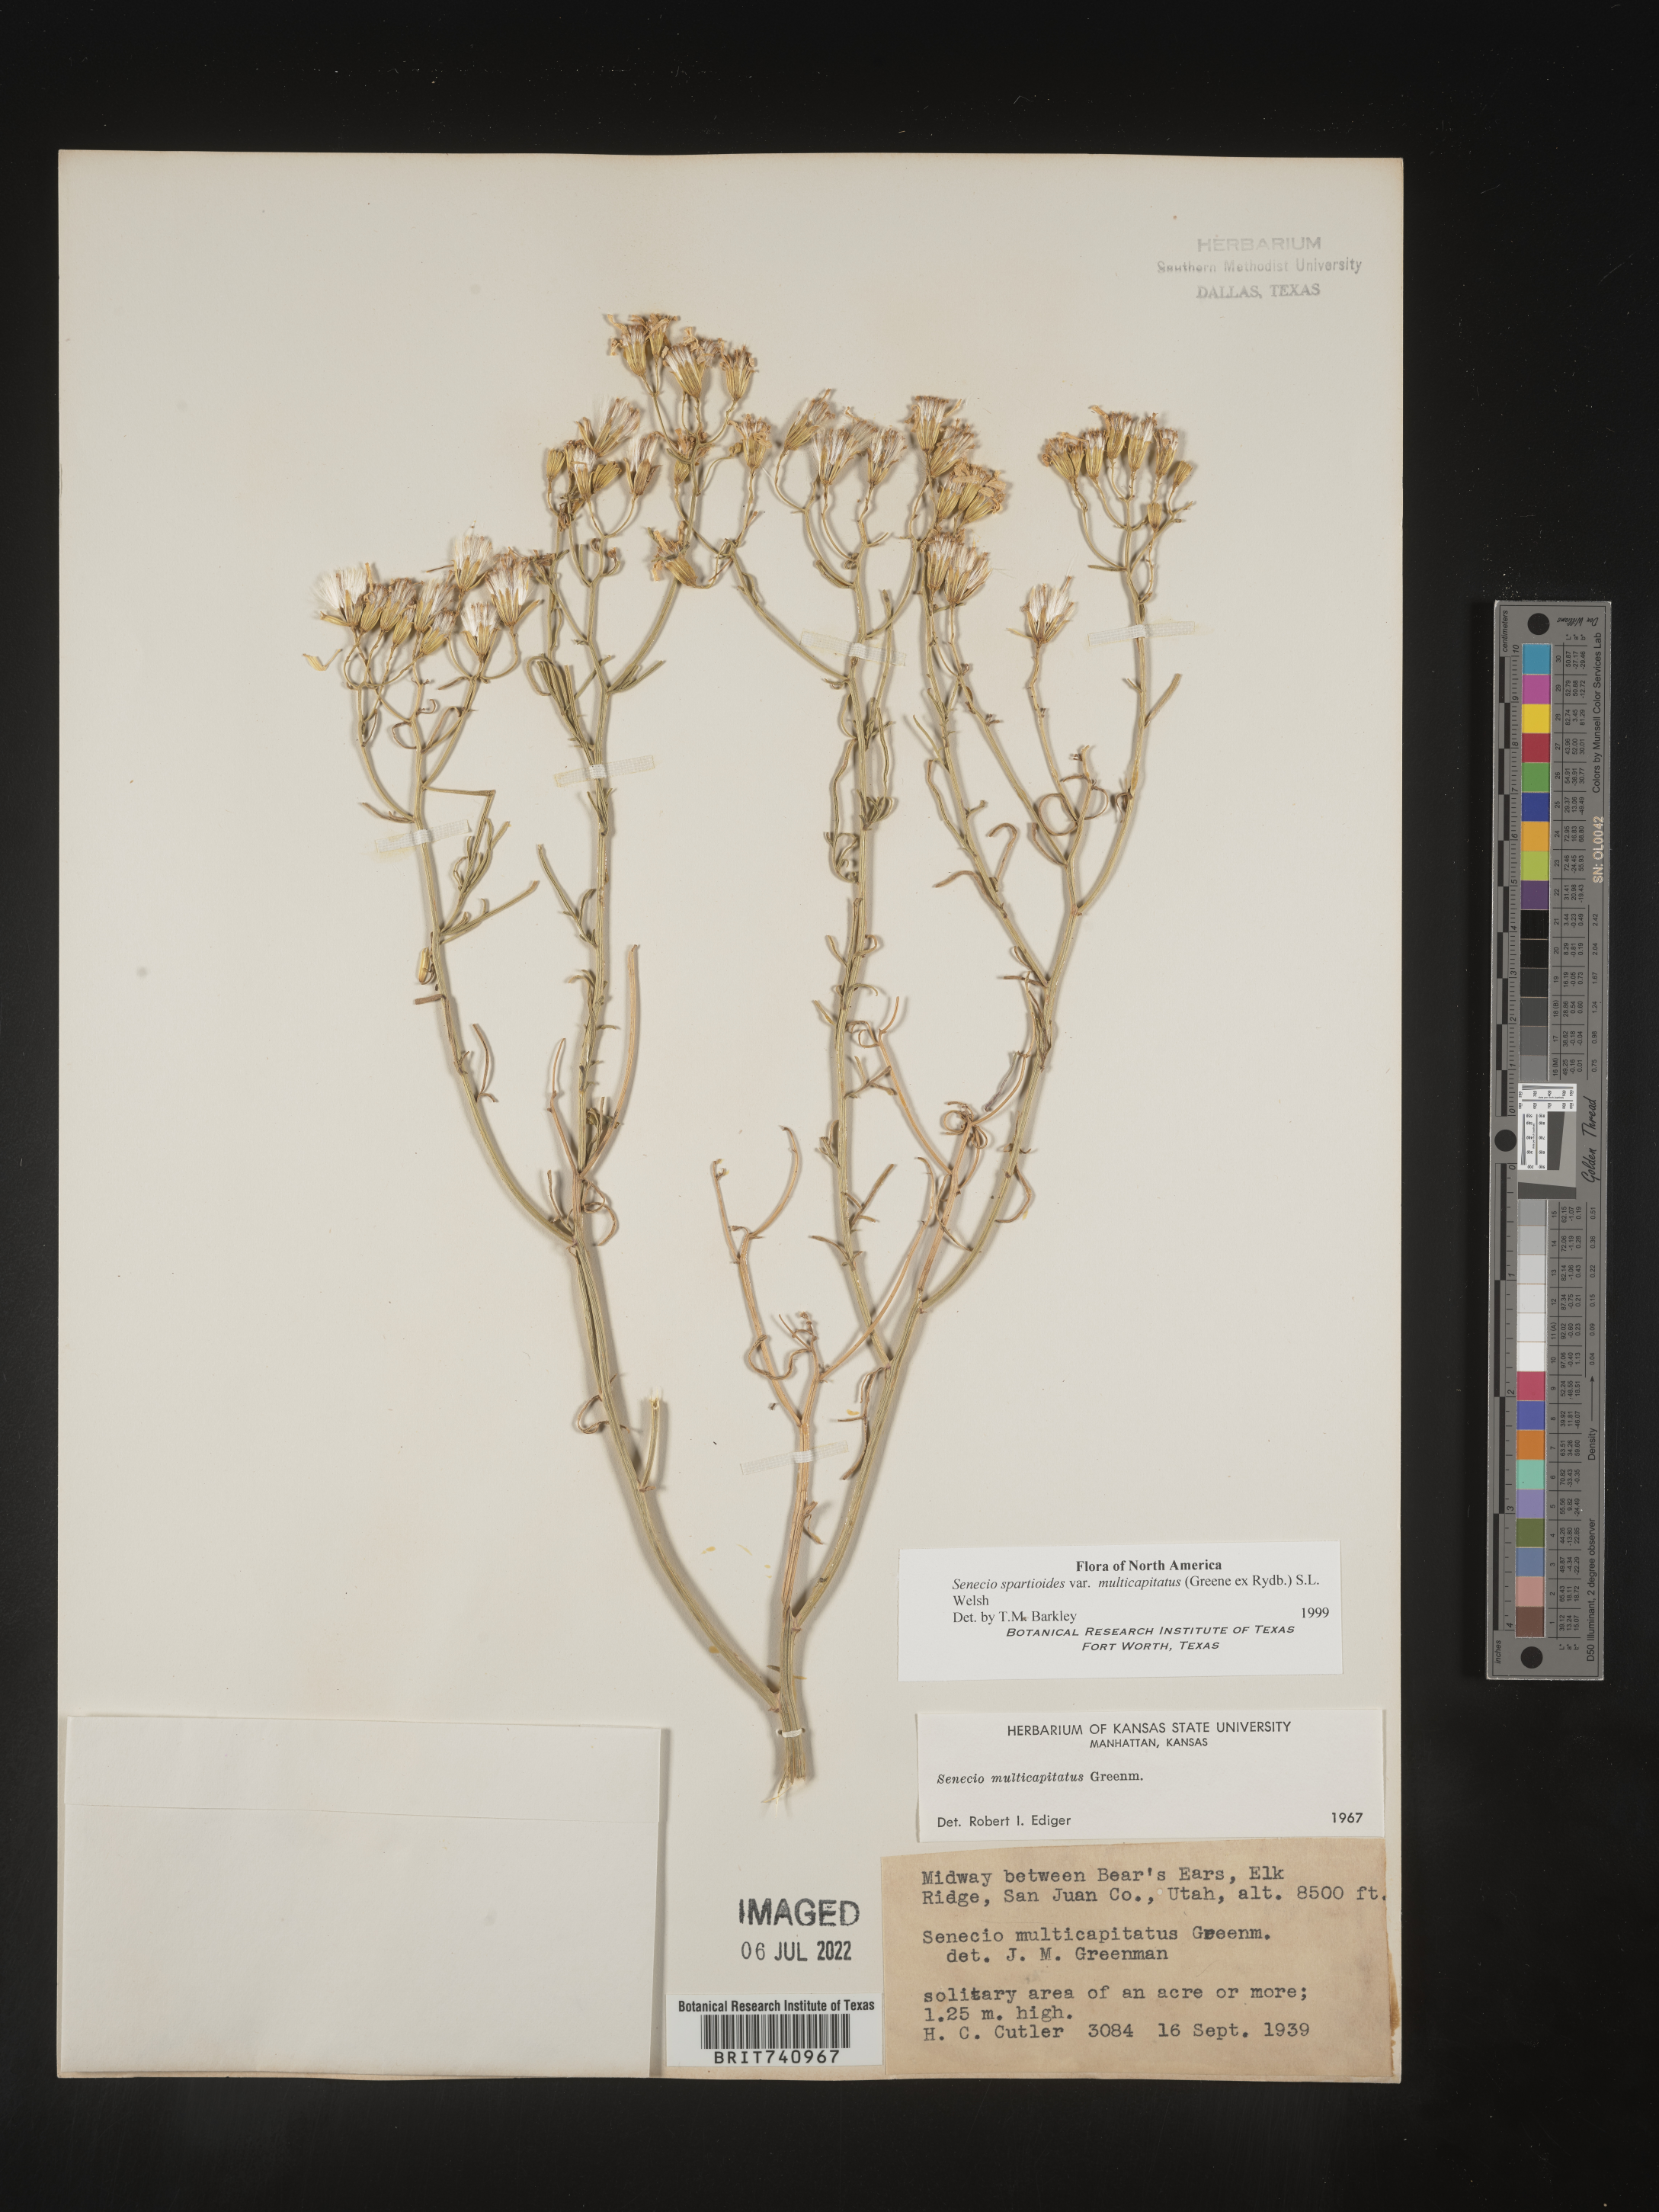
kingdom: Plantae
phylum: Tracheophyta
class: Magnoliopsida
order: Asterales
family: Asteraceae
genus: Senecio
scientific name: Senecio spartioides
